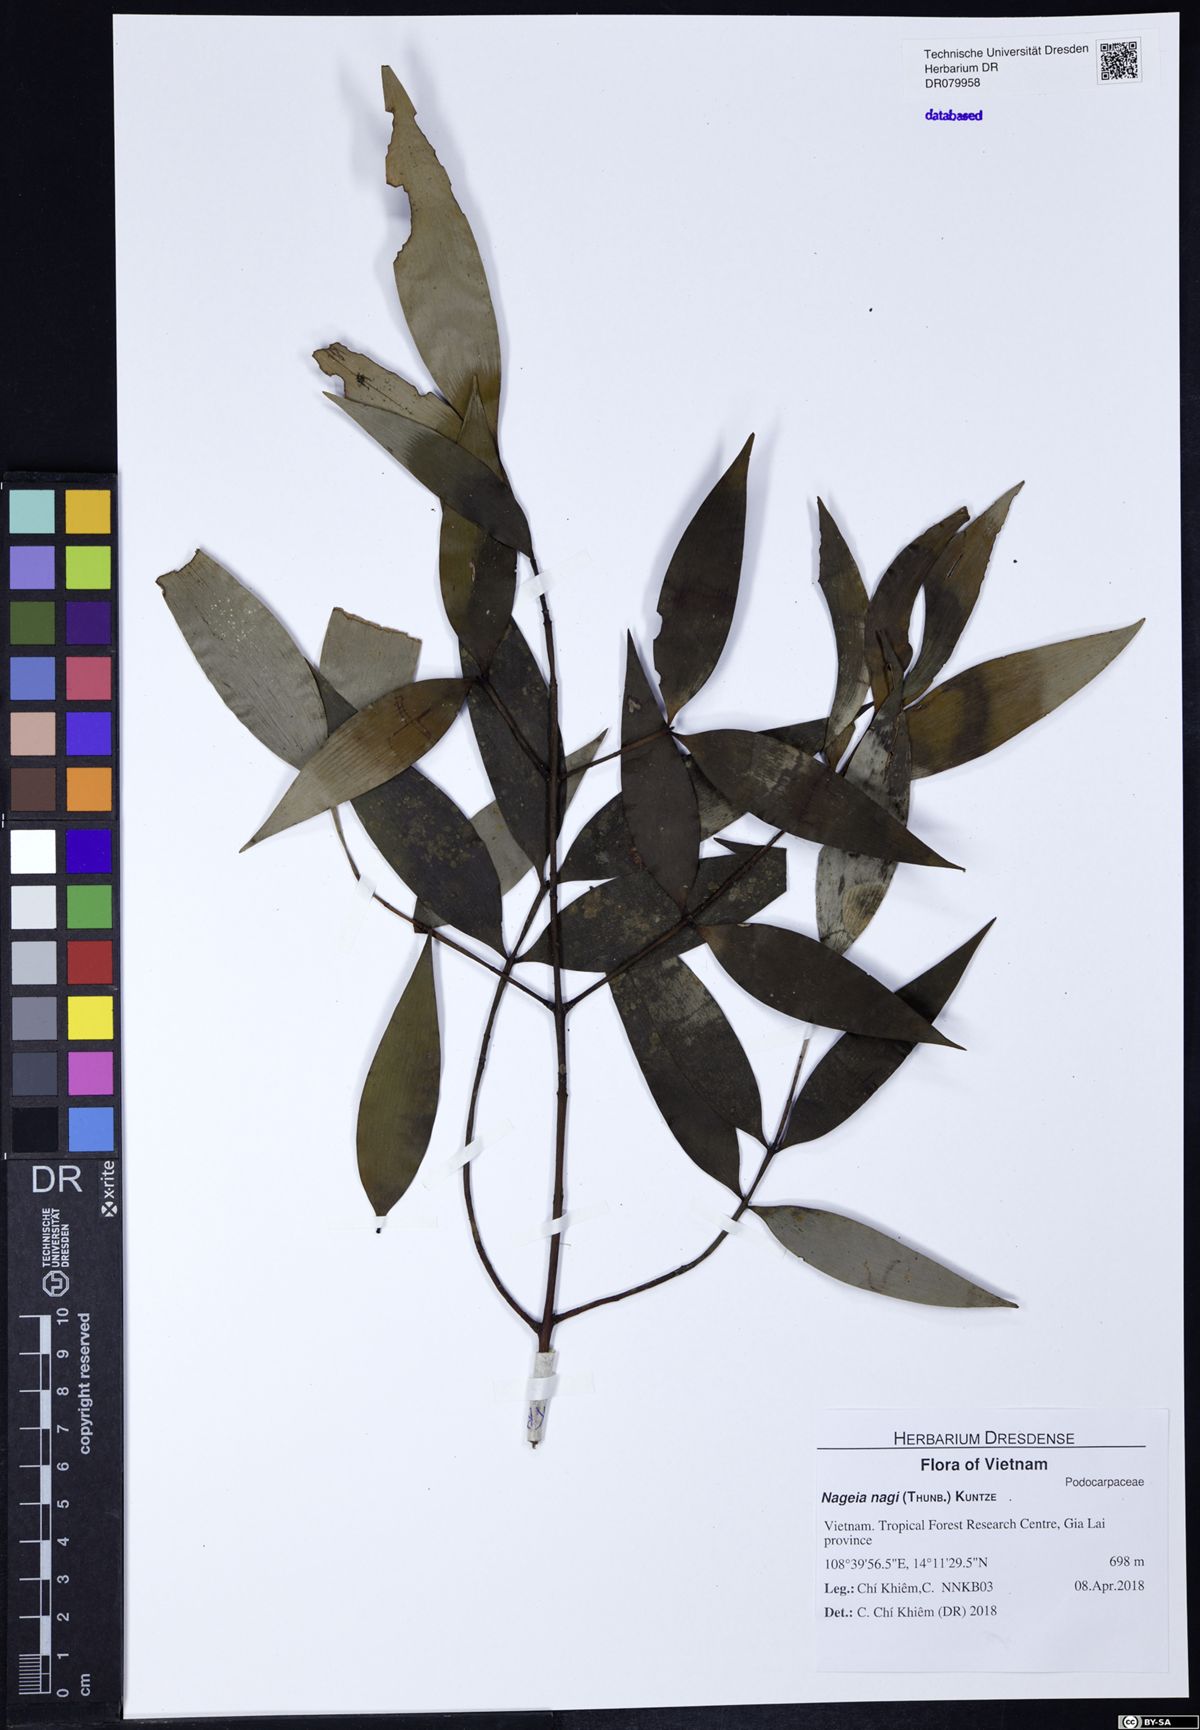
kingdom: Plantae
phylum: Tracheophyta
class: Pinopsida
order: Pinales
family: Podocarpaceae
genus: Nageia
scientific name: Nageia nagi
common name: Kaphal
